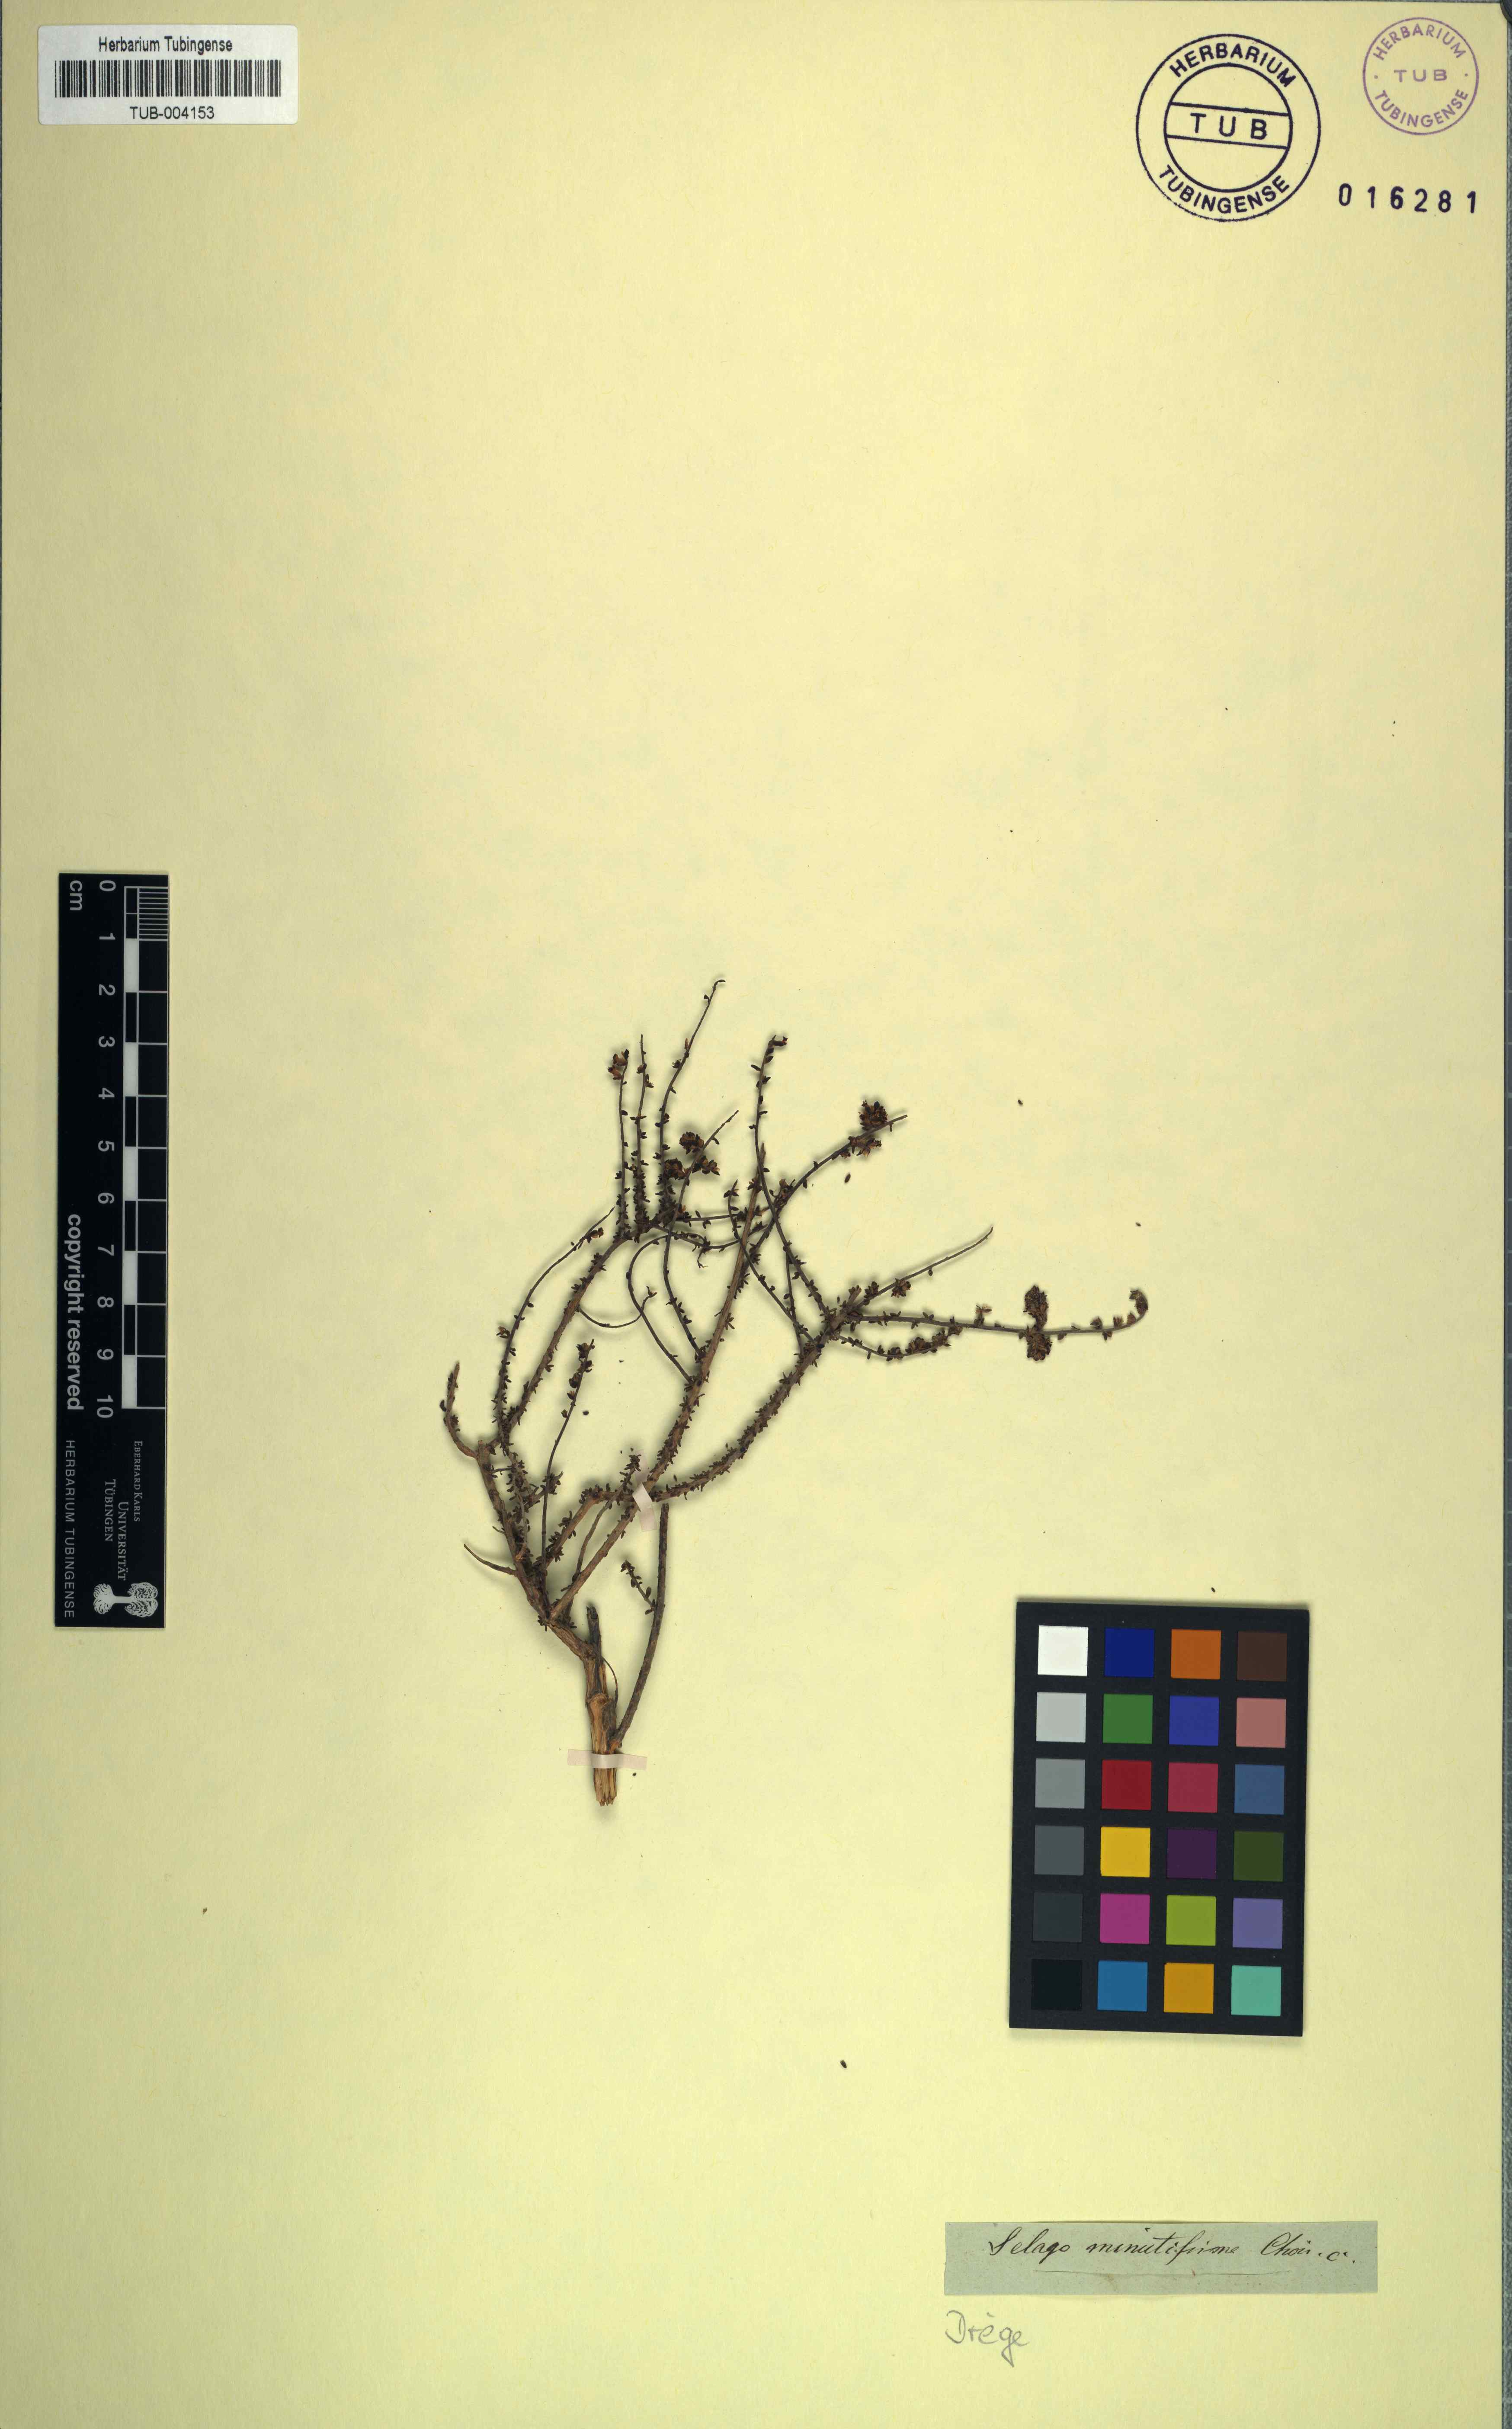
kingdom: Plantae
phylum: Tracheophyta
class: Magnoliopsida
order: Lamiales
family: Scrophulariaceae
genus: Selago
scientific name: Selago divaricata
